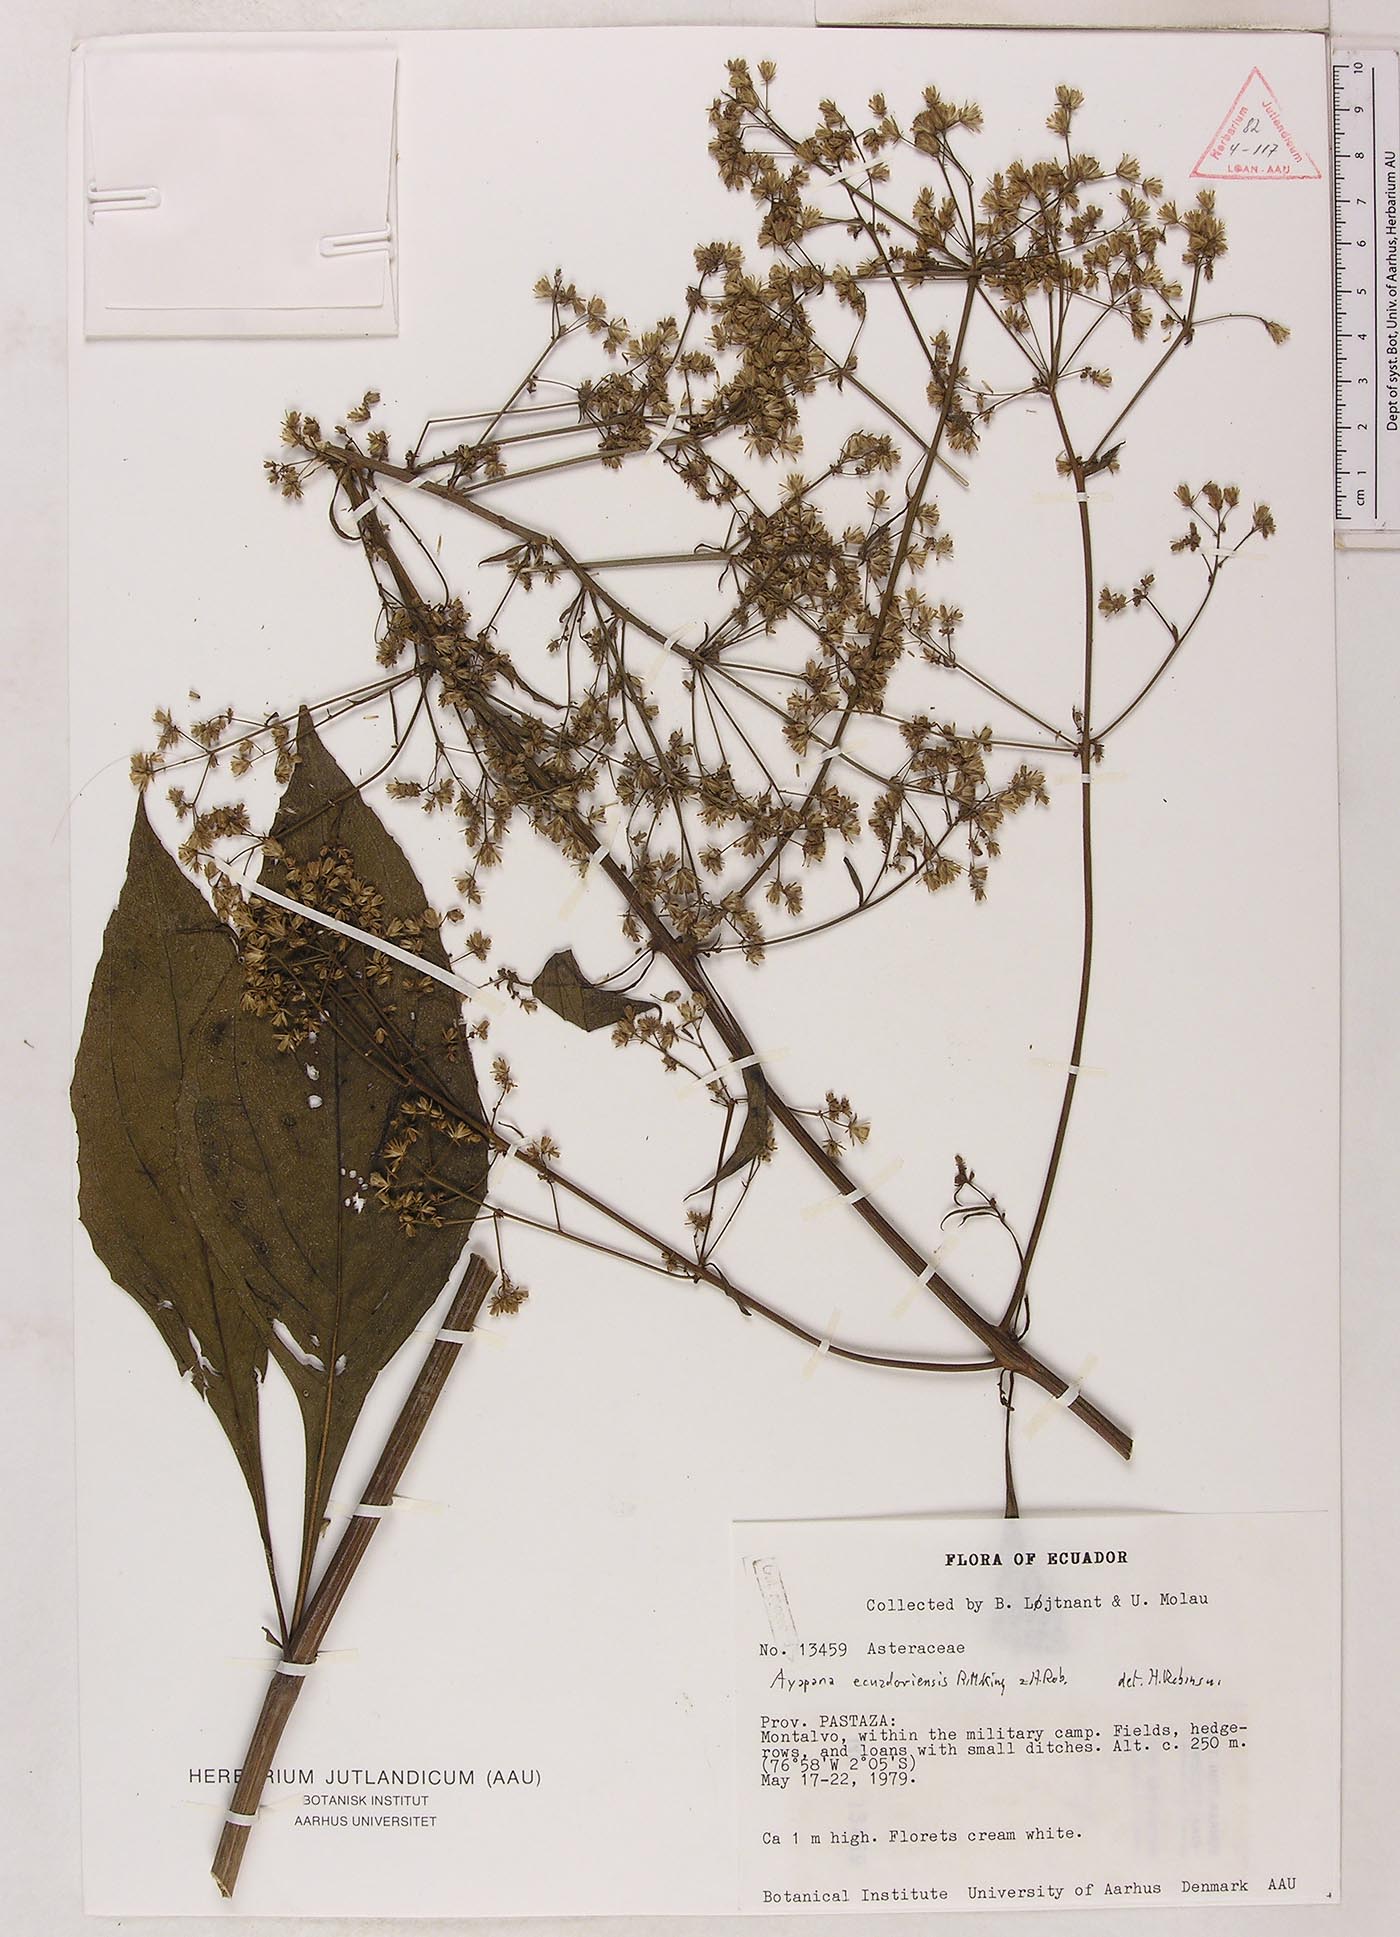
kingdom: Plantae
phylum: Tracheophyta
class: Magnoliopsida
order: Asterales
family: Asteraceae
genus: Ayapana
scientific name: Ayapana ecuadorensis
